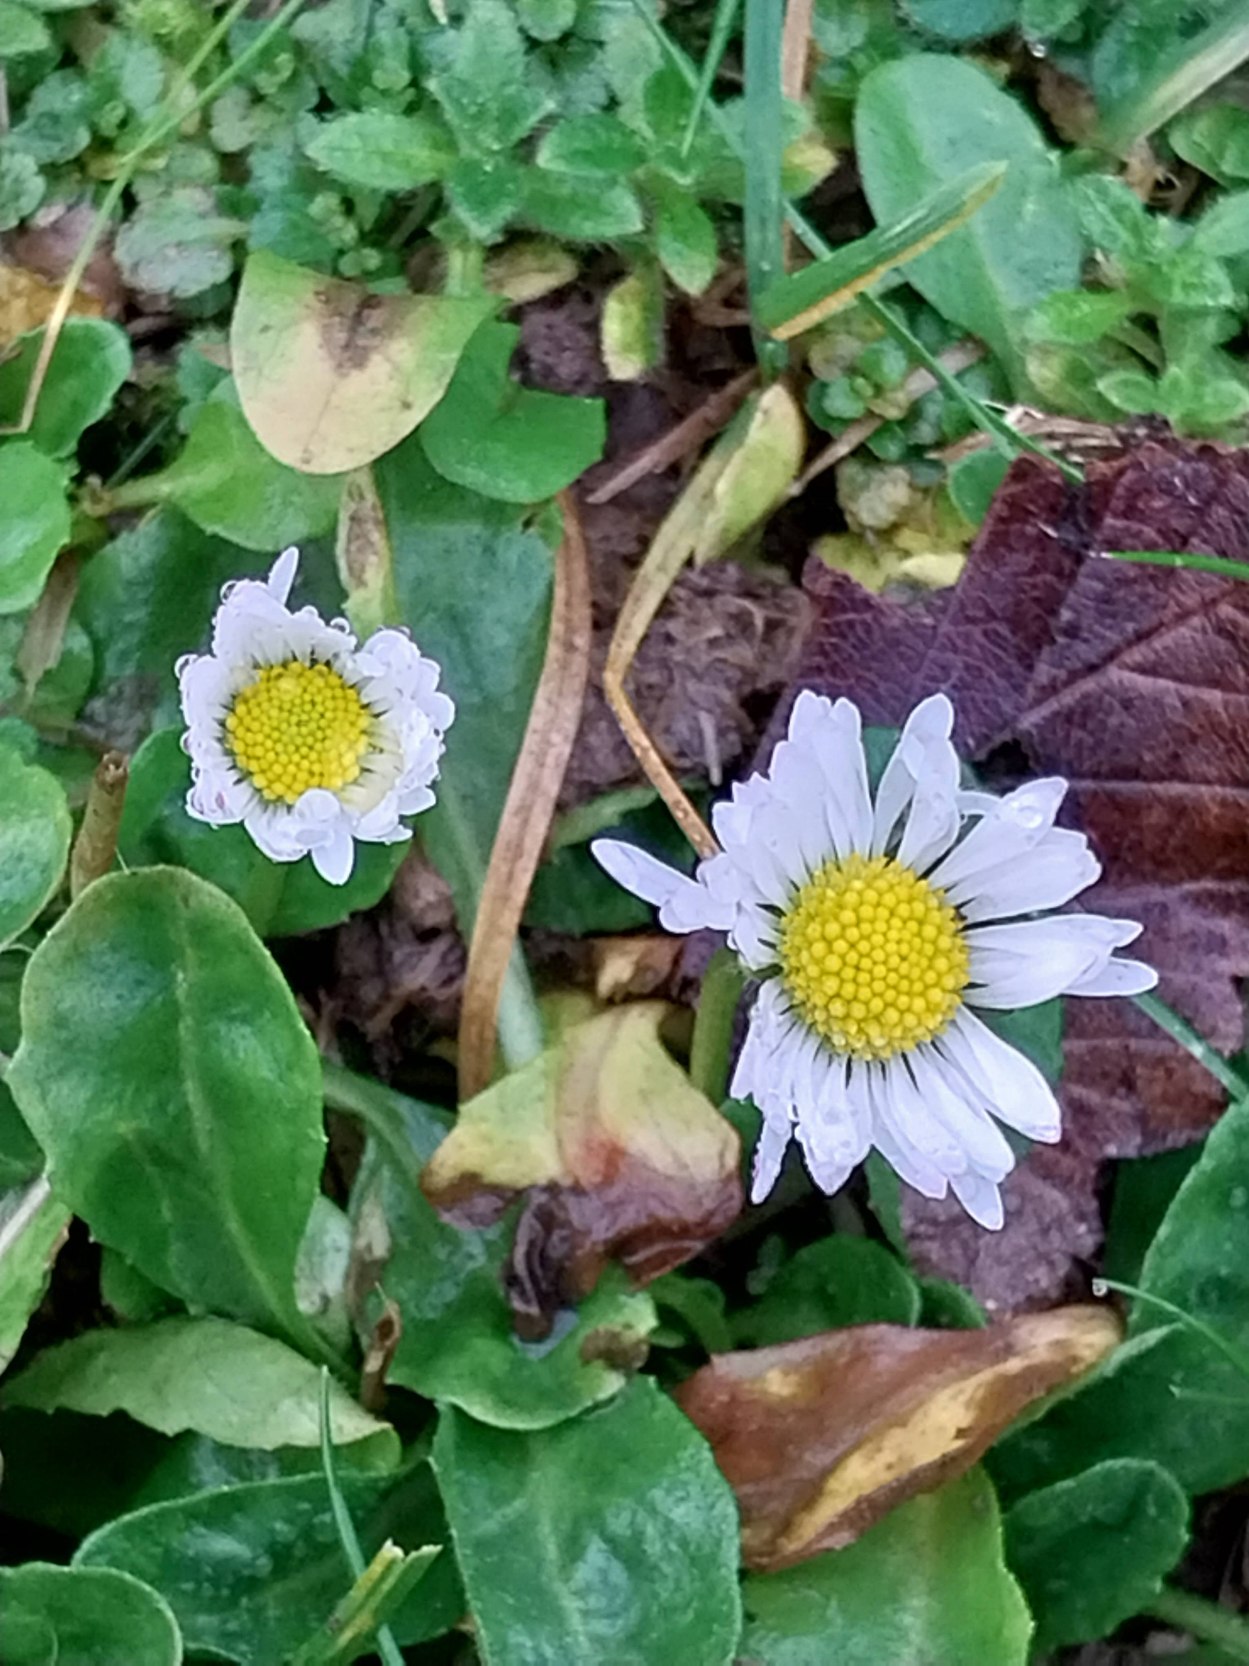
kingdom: Plantae
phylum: Tracheophyta
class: Magnoliopsida
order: Asterales
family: Asteraceae
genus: Bellis
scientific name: Bellis perennis
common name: Tusindfryd
